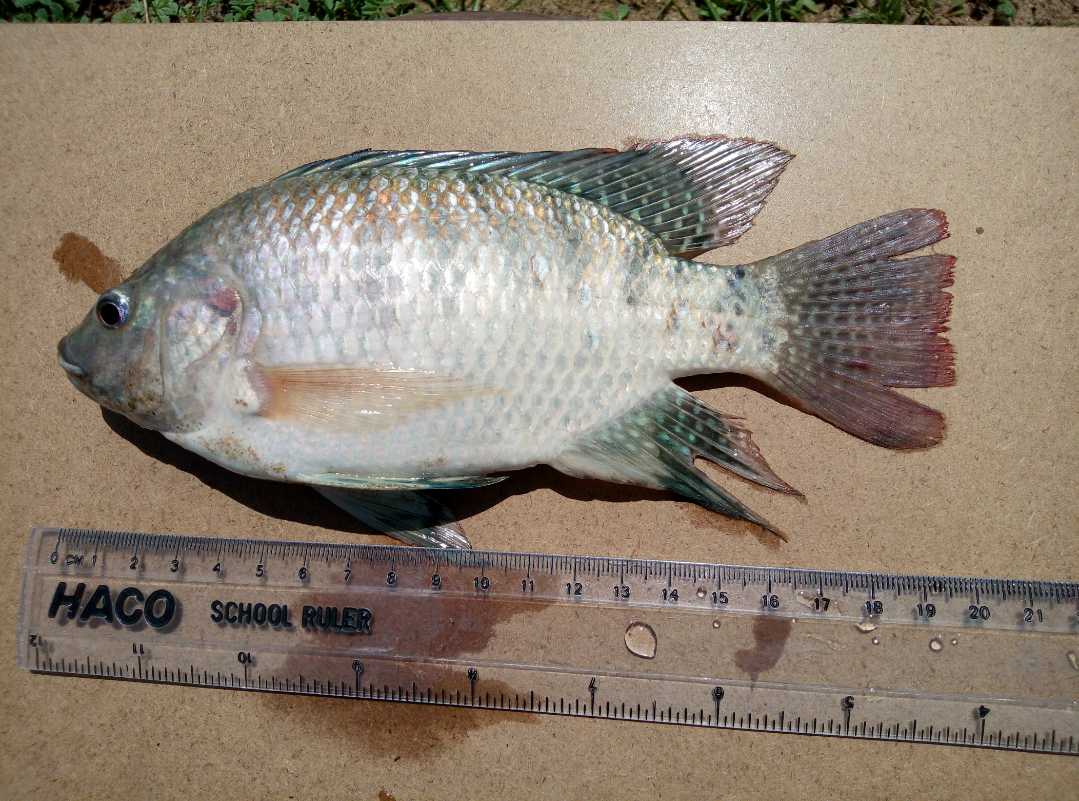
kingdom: Animalia
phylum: Chordata
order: Perciformes
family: Cichlidae
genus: Oreochromis
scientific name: Oreochromis spilurus
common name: Sabaki tilapia
